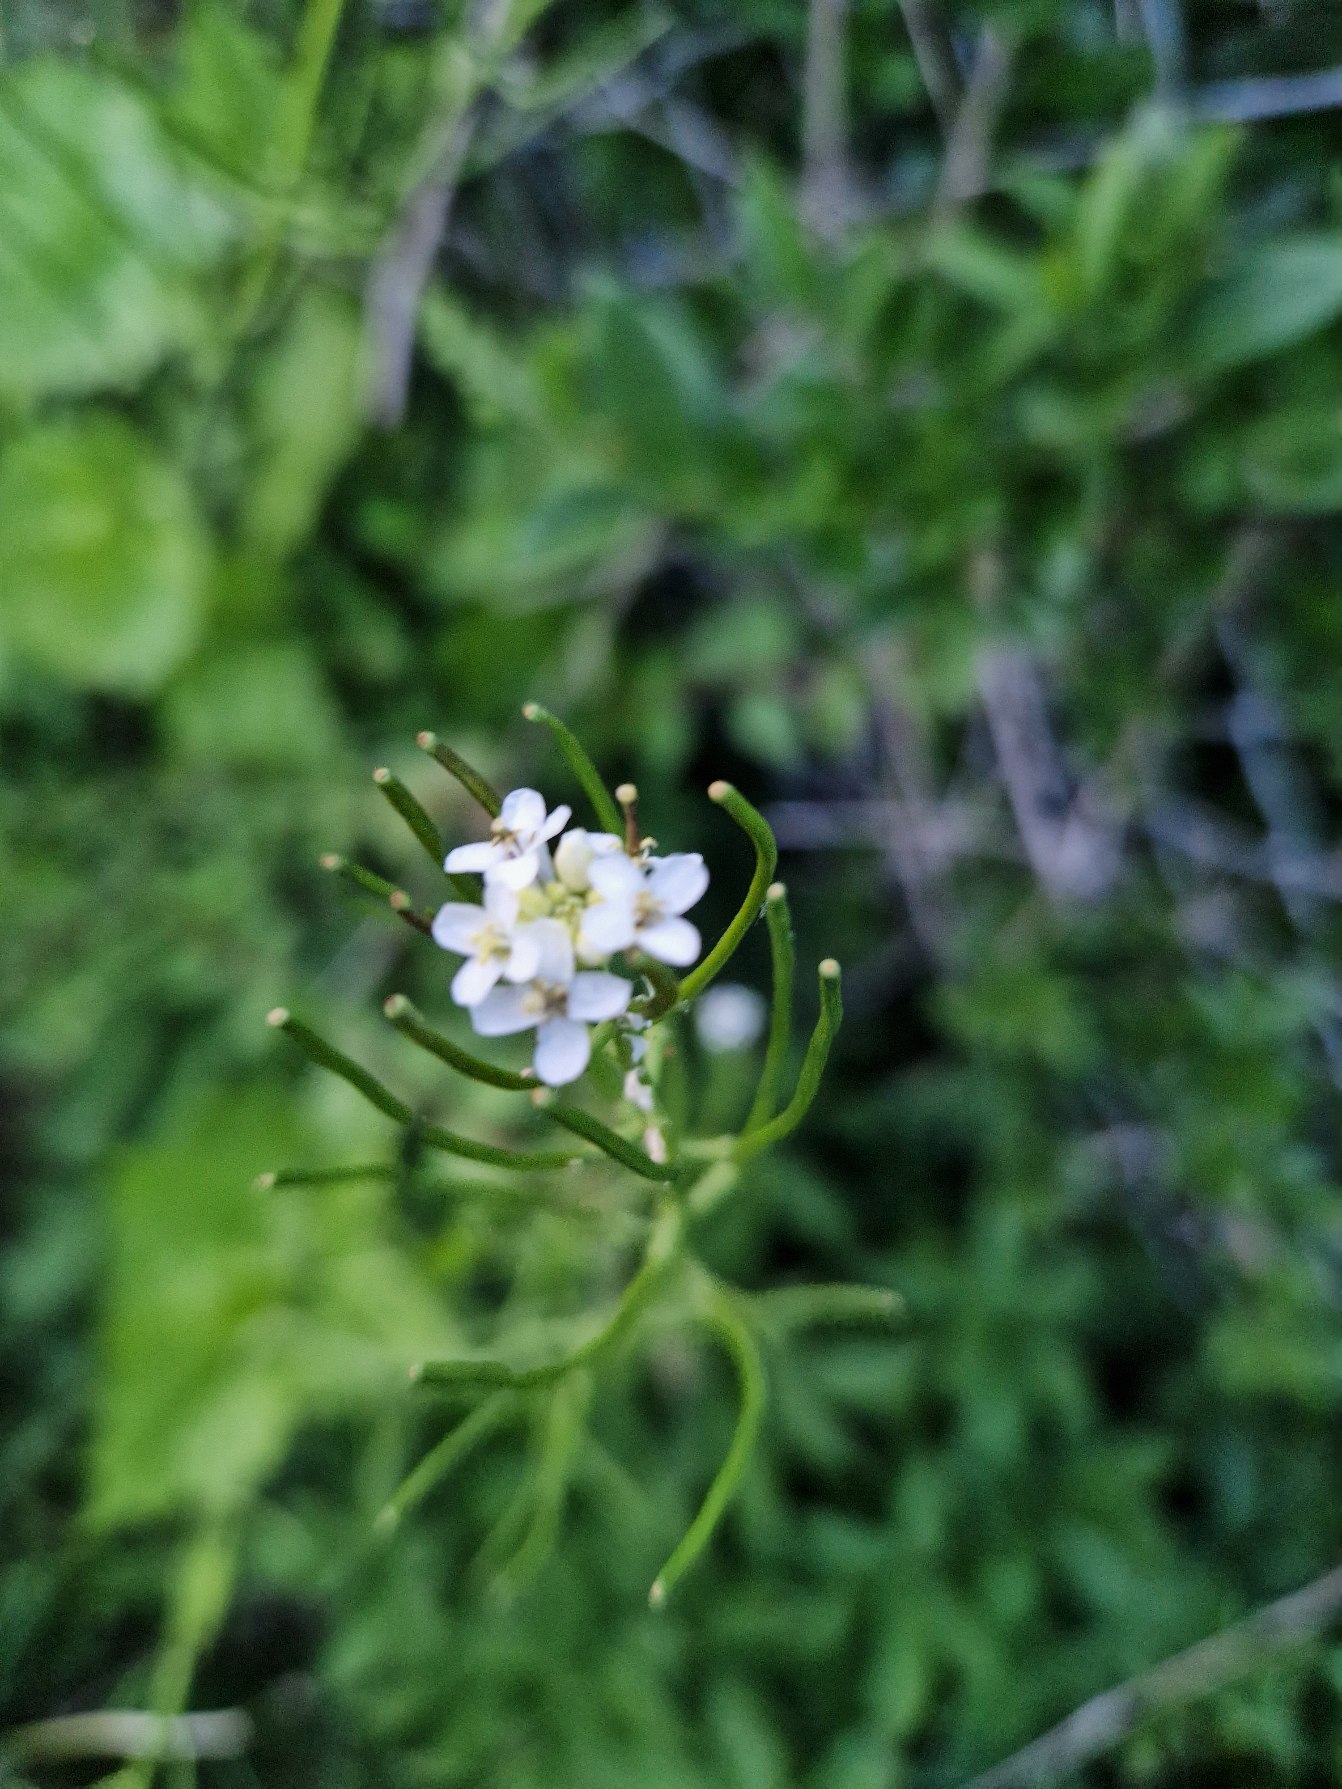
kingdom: Plantae
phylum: Tracheophyta
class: Magnoliopsida
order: Brassicales
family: Brassicaceae
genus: Alliaria
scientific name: Alliaria petiolata
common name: Løgkarse
